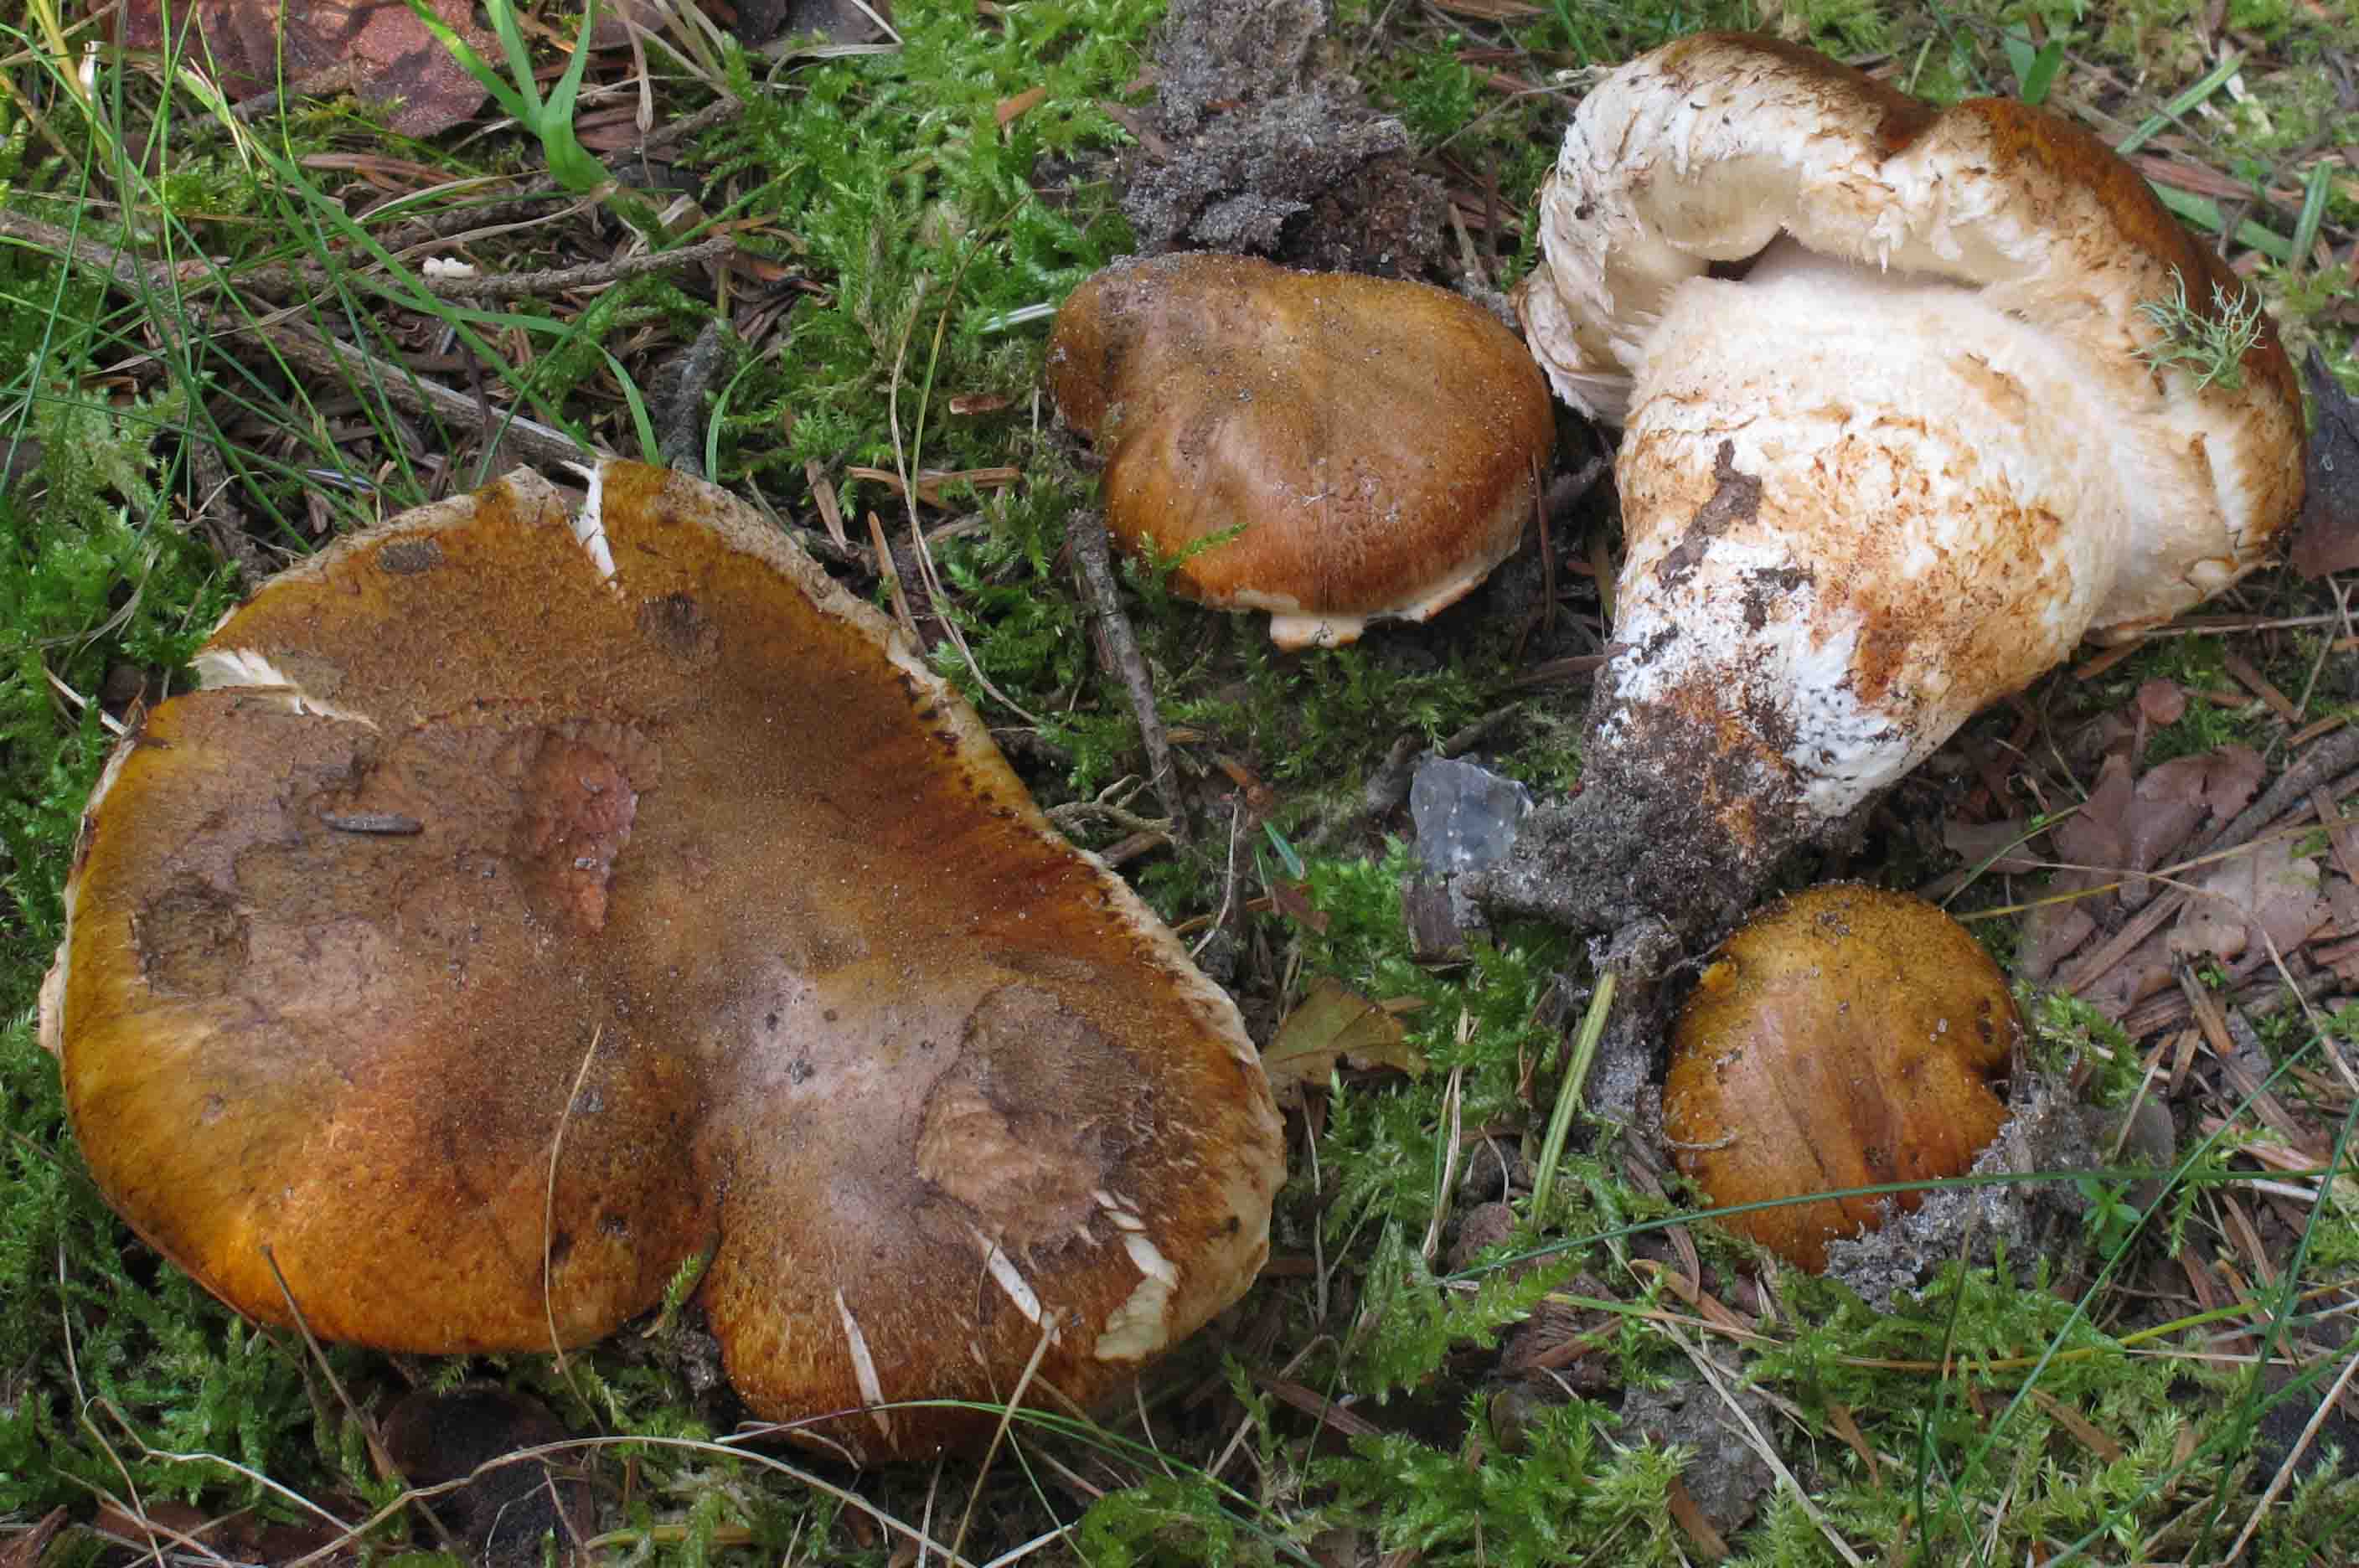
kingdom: Fungi
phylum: Basidiomycota
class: Agaricomycetes
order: Agaricales
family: Tricholomataceae
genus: Tricholoma
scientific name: Tricholoma focale
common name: halsbånd-ridderhat
